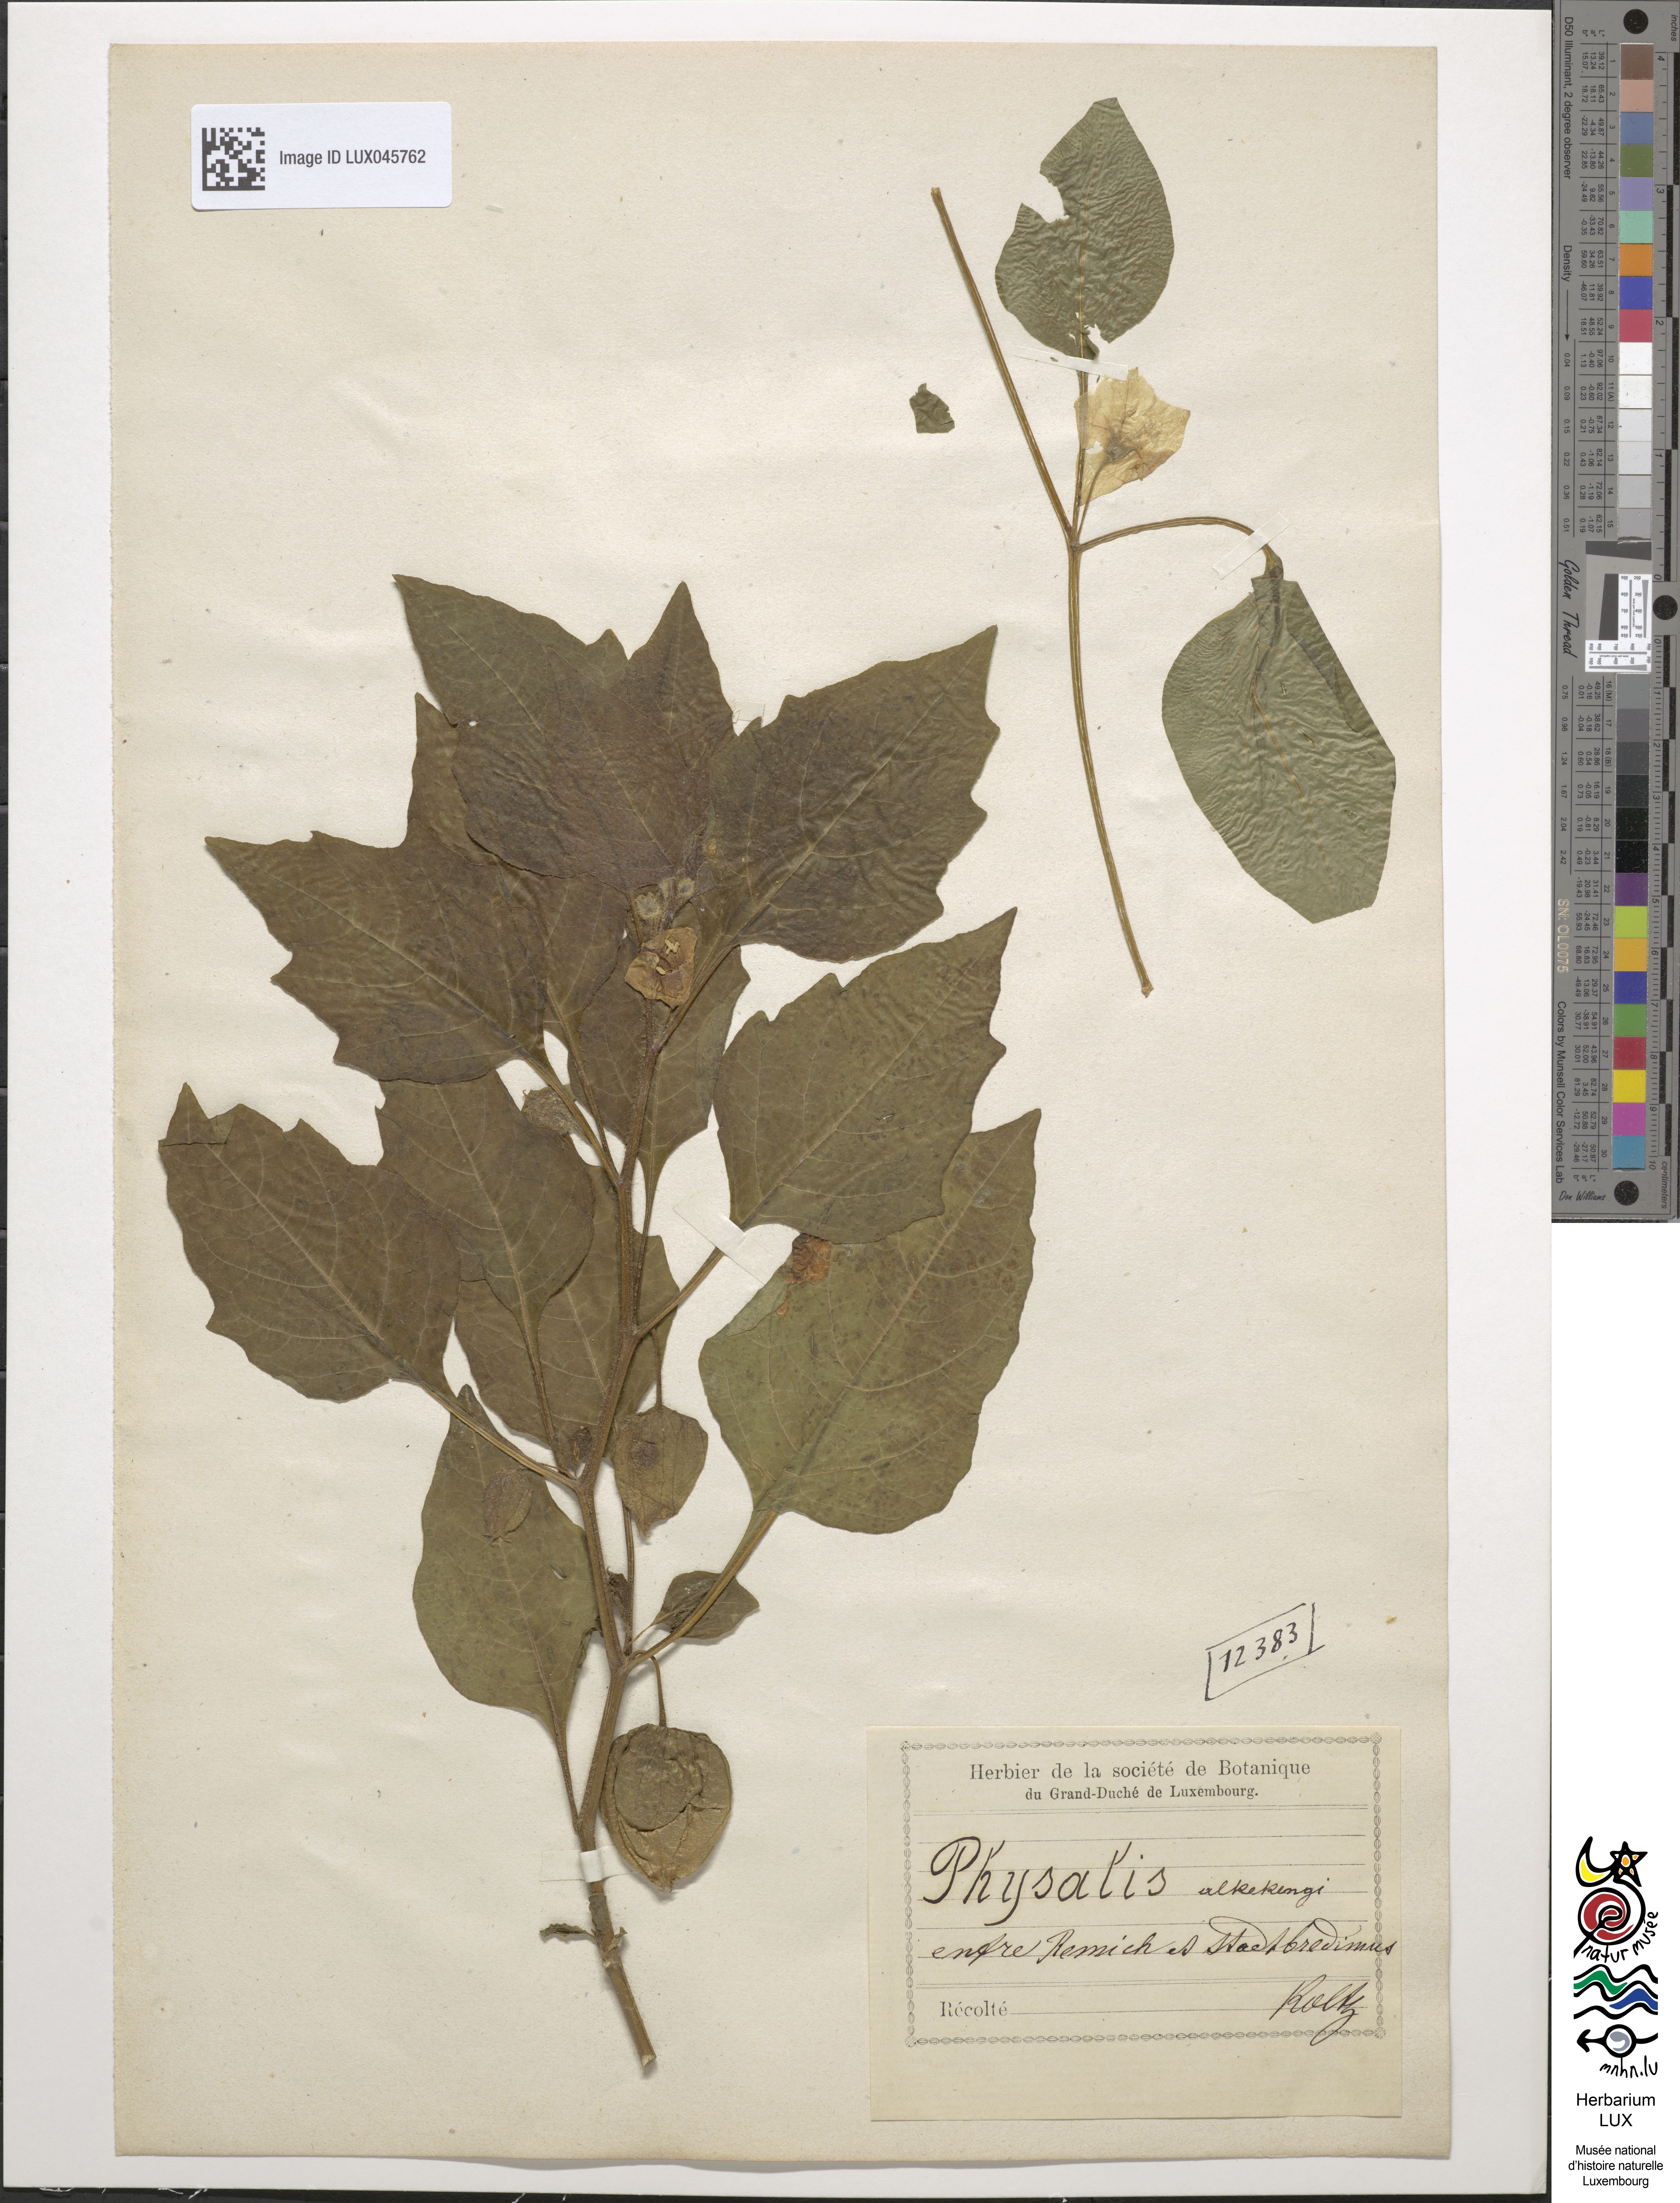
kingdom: Plantae
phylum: Tracheophyta
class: Magnoliopsida
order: Solanales
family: Solanaceae
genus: Alkekengi
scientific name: Alkekengi officinarum
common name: Japanese-lantern
